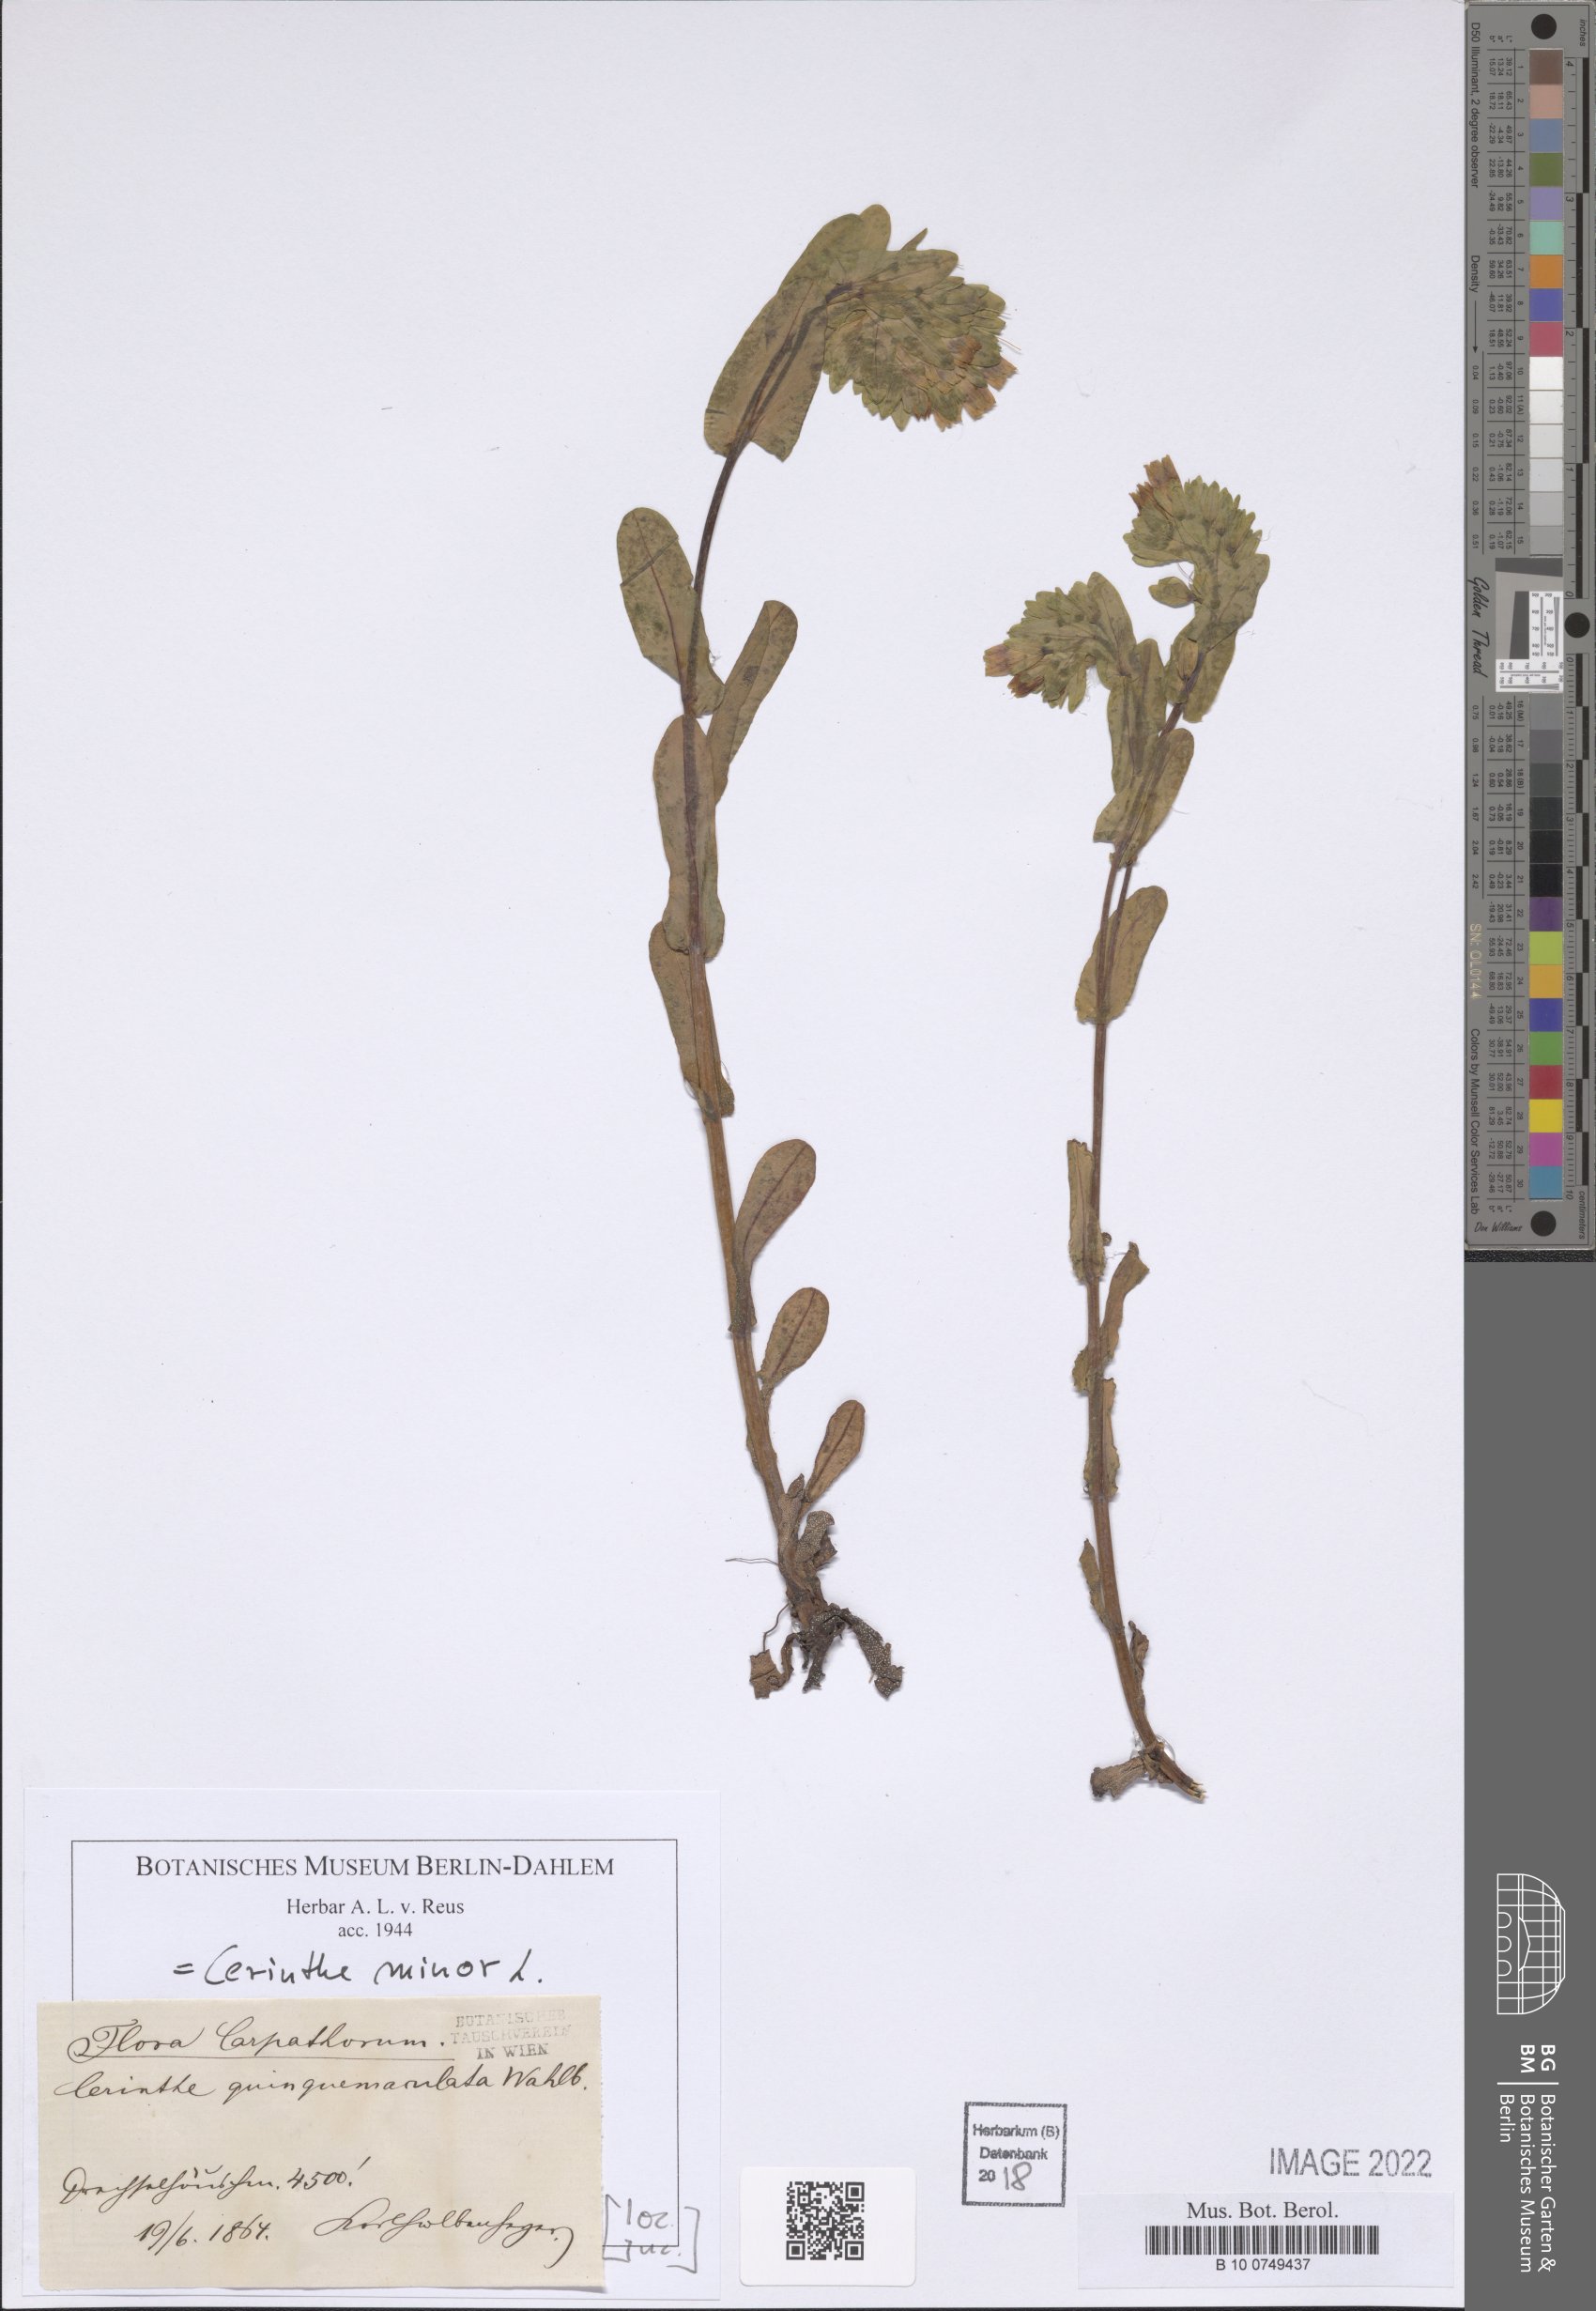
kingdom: Plantae
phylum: Tracheophyta
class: Magnoliopsida
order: Boraginales
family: Boraginaceae
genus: Cerinthe
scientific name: Cerinthe minor
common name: Lesser honeywort
